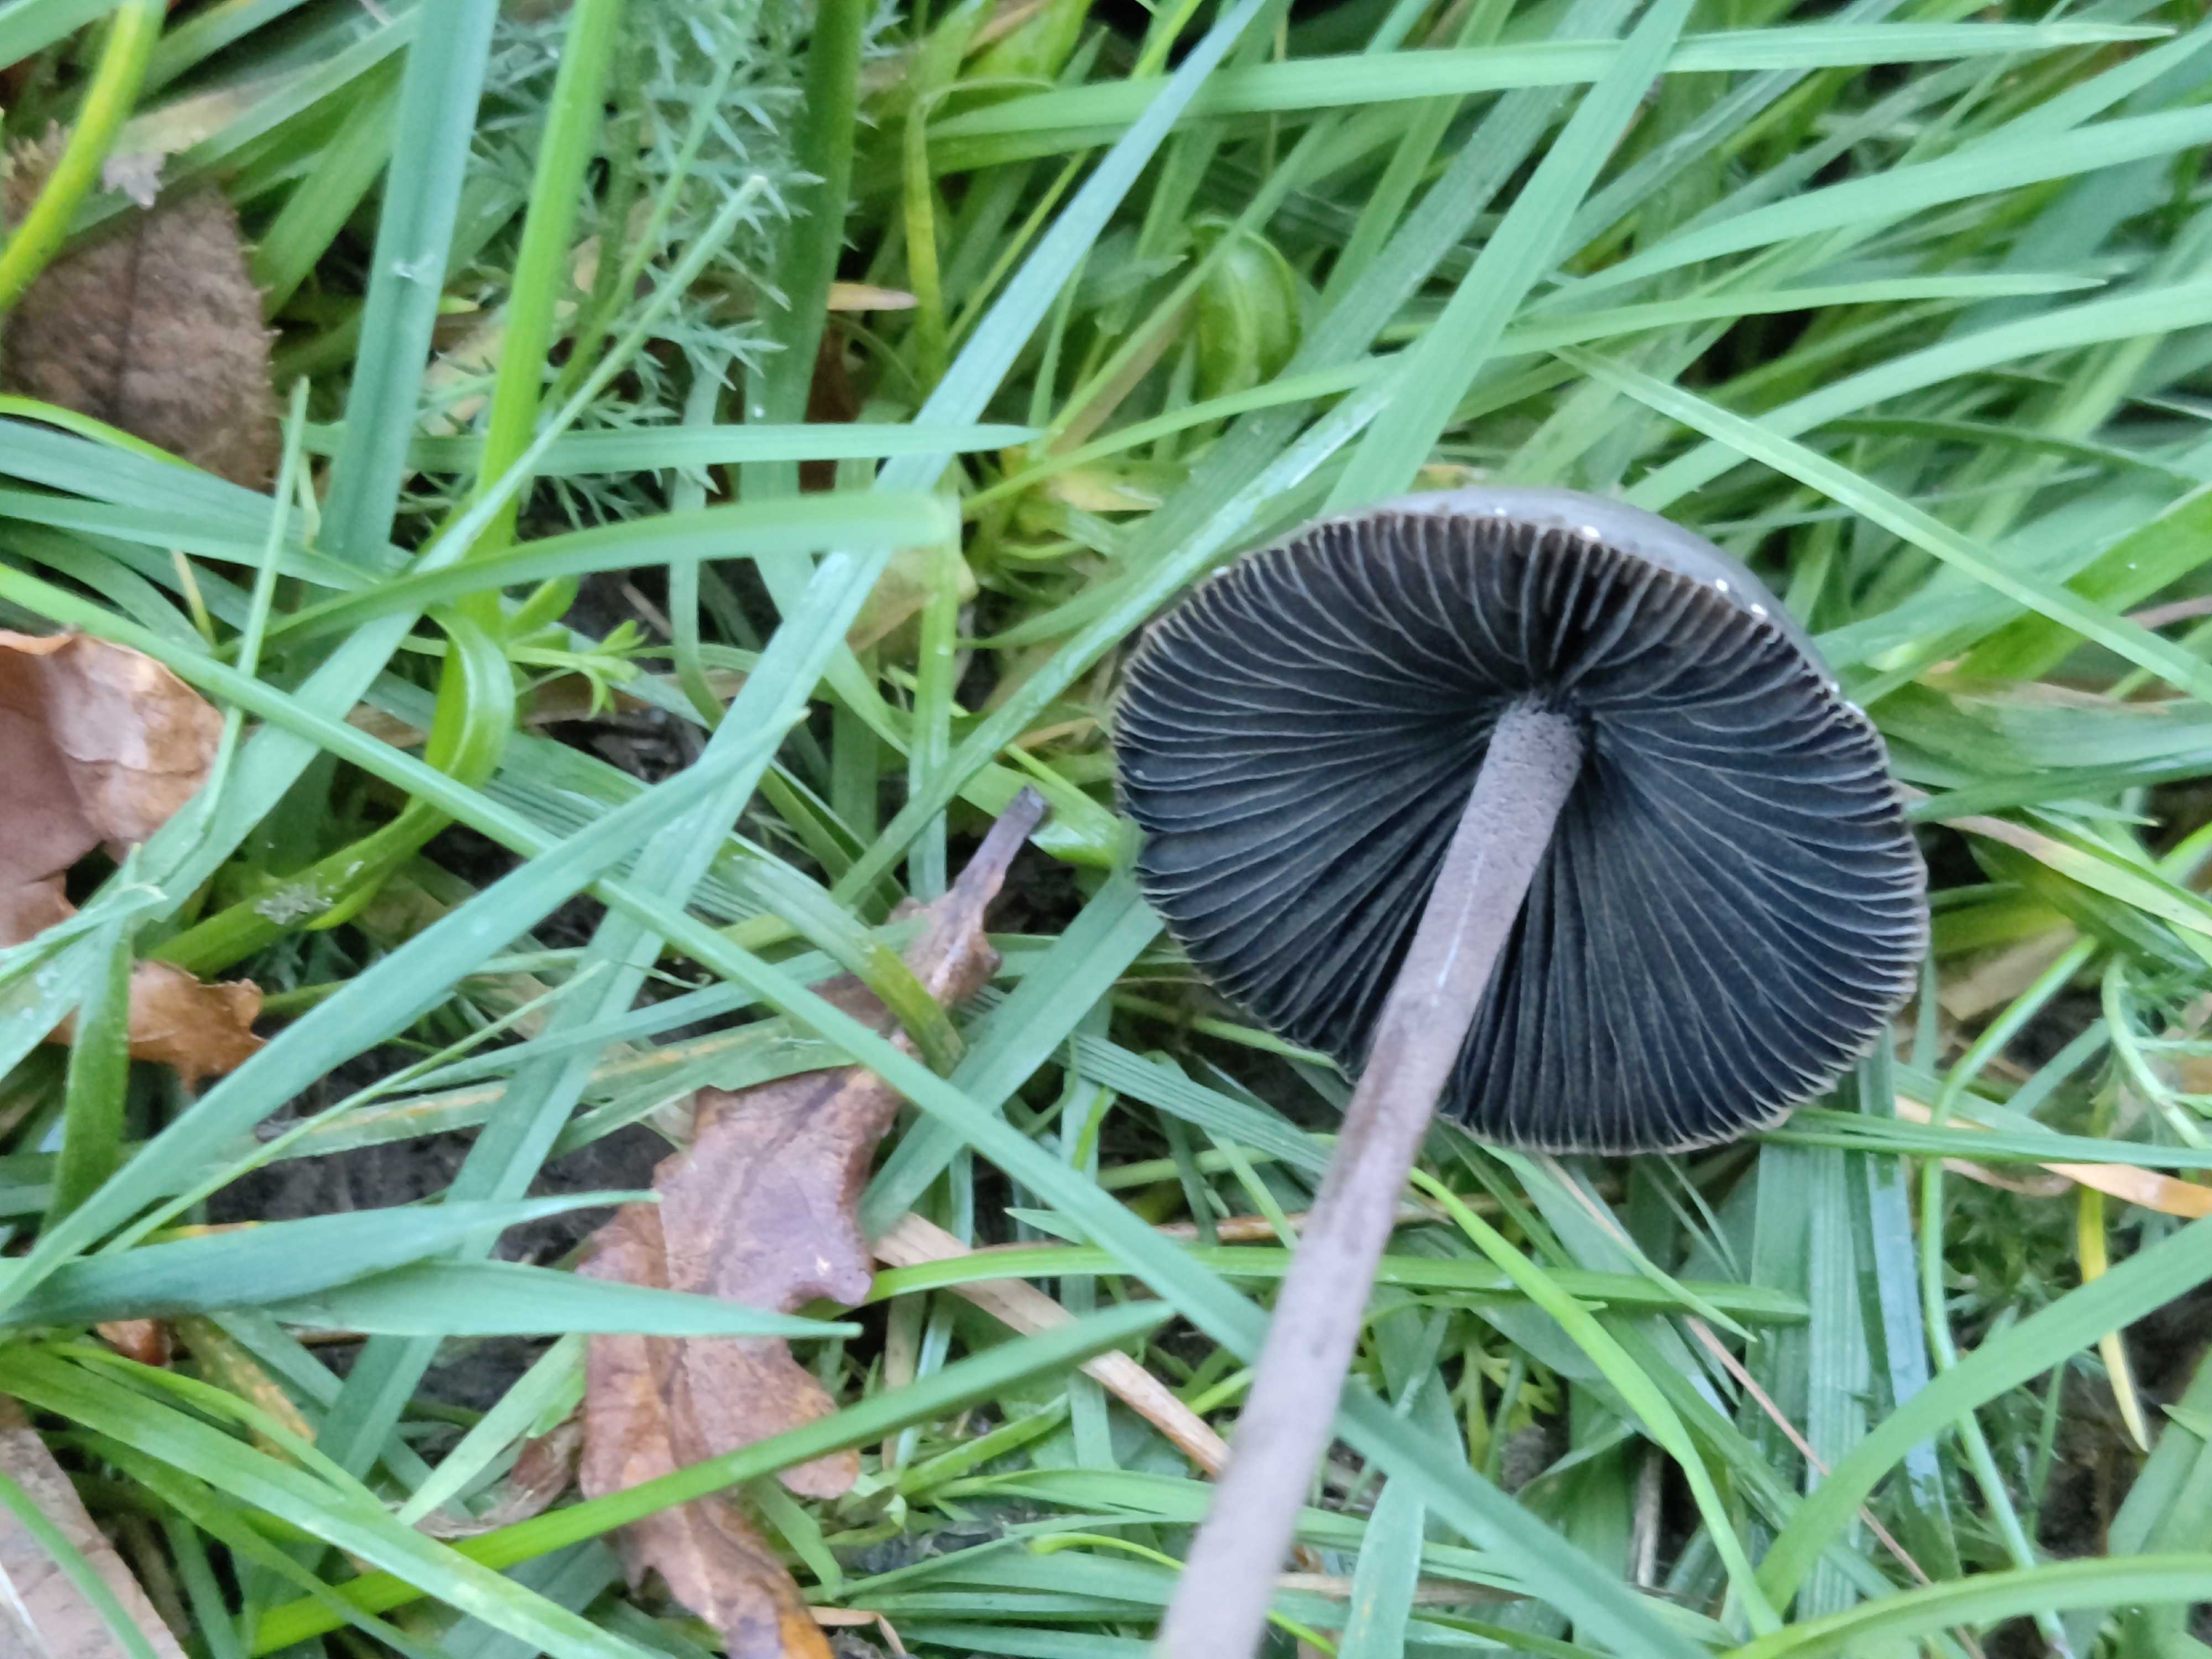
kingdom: Fungi
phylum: Basidiomycota
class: Agaricomycetes
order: Agaricales
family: Bolbitiaceae
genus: Panaeolus
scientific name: Panaeolus
